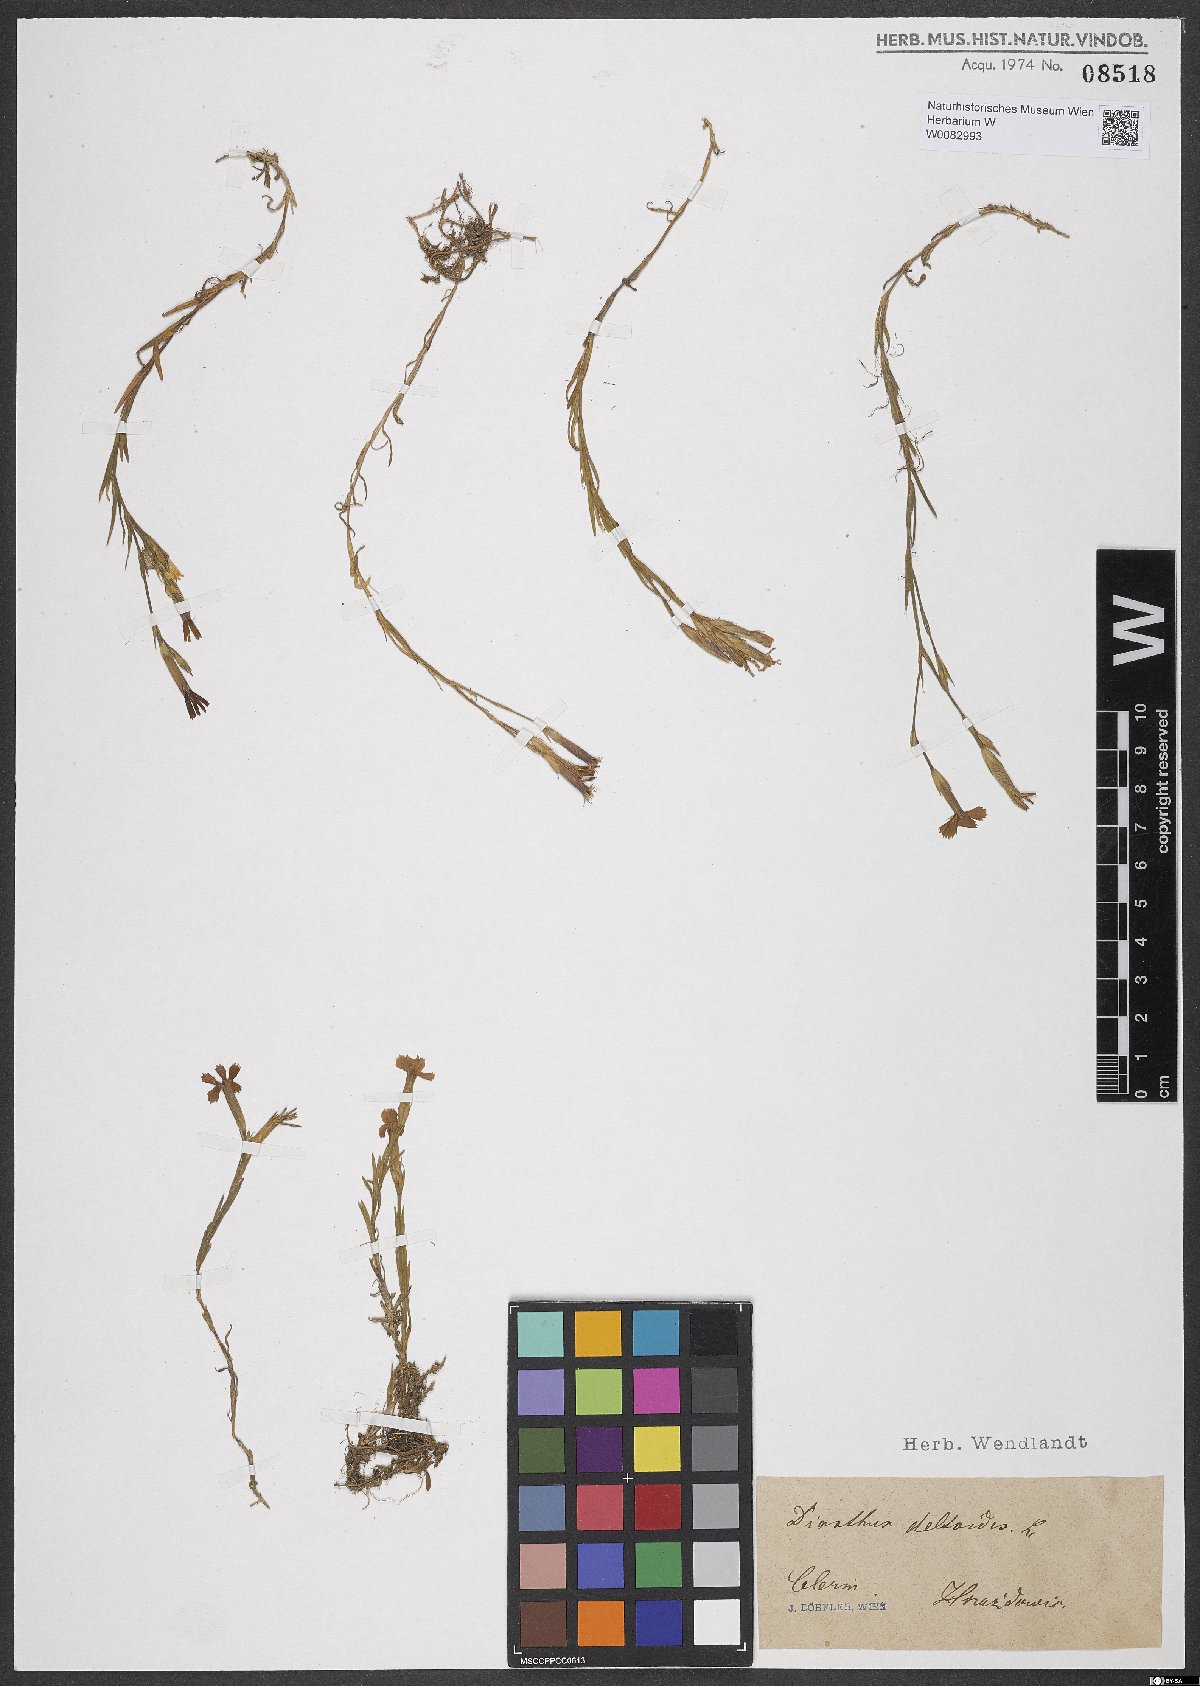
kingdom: Plantae
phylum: Tracheophyta
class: Magnoliopsida
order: Caryophyllales
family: Caryophyllaceae
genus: Dianthus
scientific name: Dianthus deltoides
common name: Maiden pink
